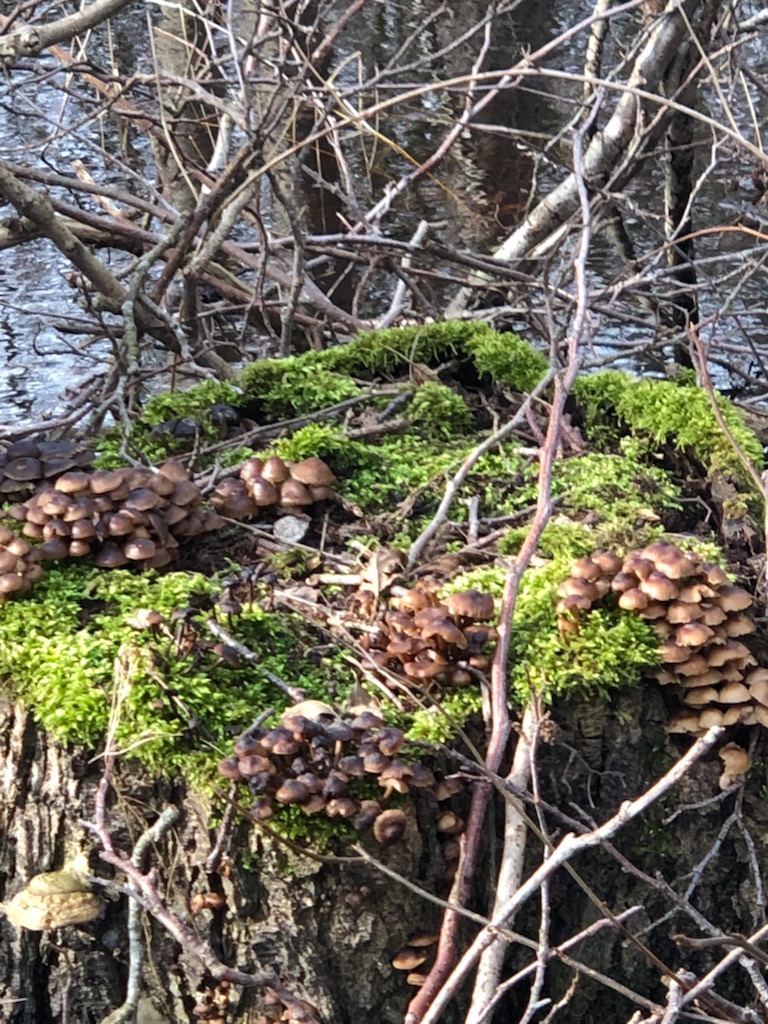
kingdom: Fungi
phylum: Basidiomycota
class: Agaricomycetes
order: Agaricales
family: Mycenaceae
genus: Mycena
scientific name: Mycena tintinnabulum
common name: vinter-huesvamp
